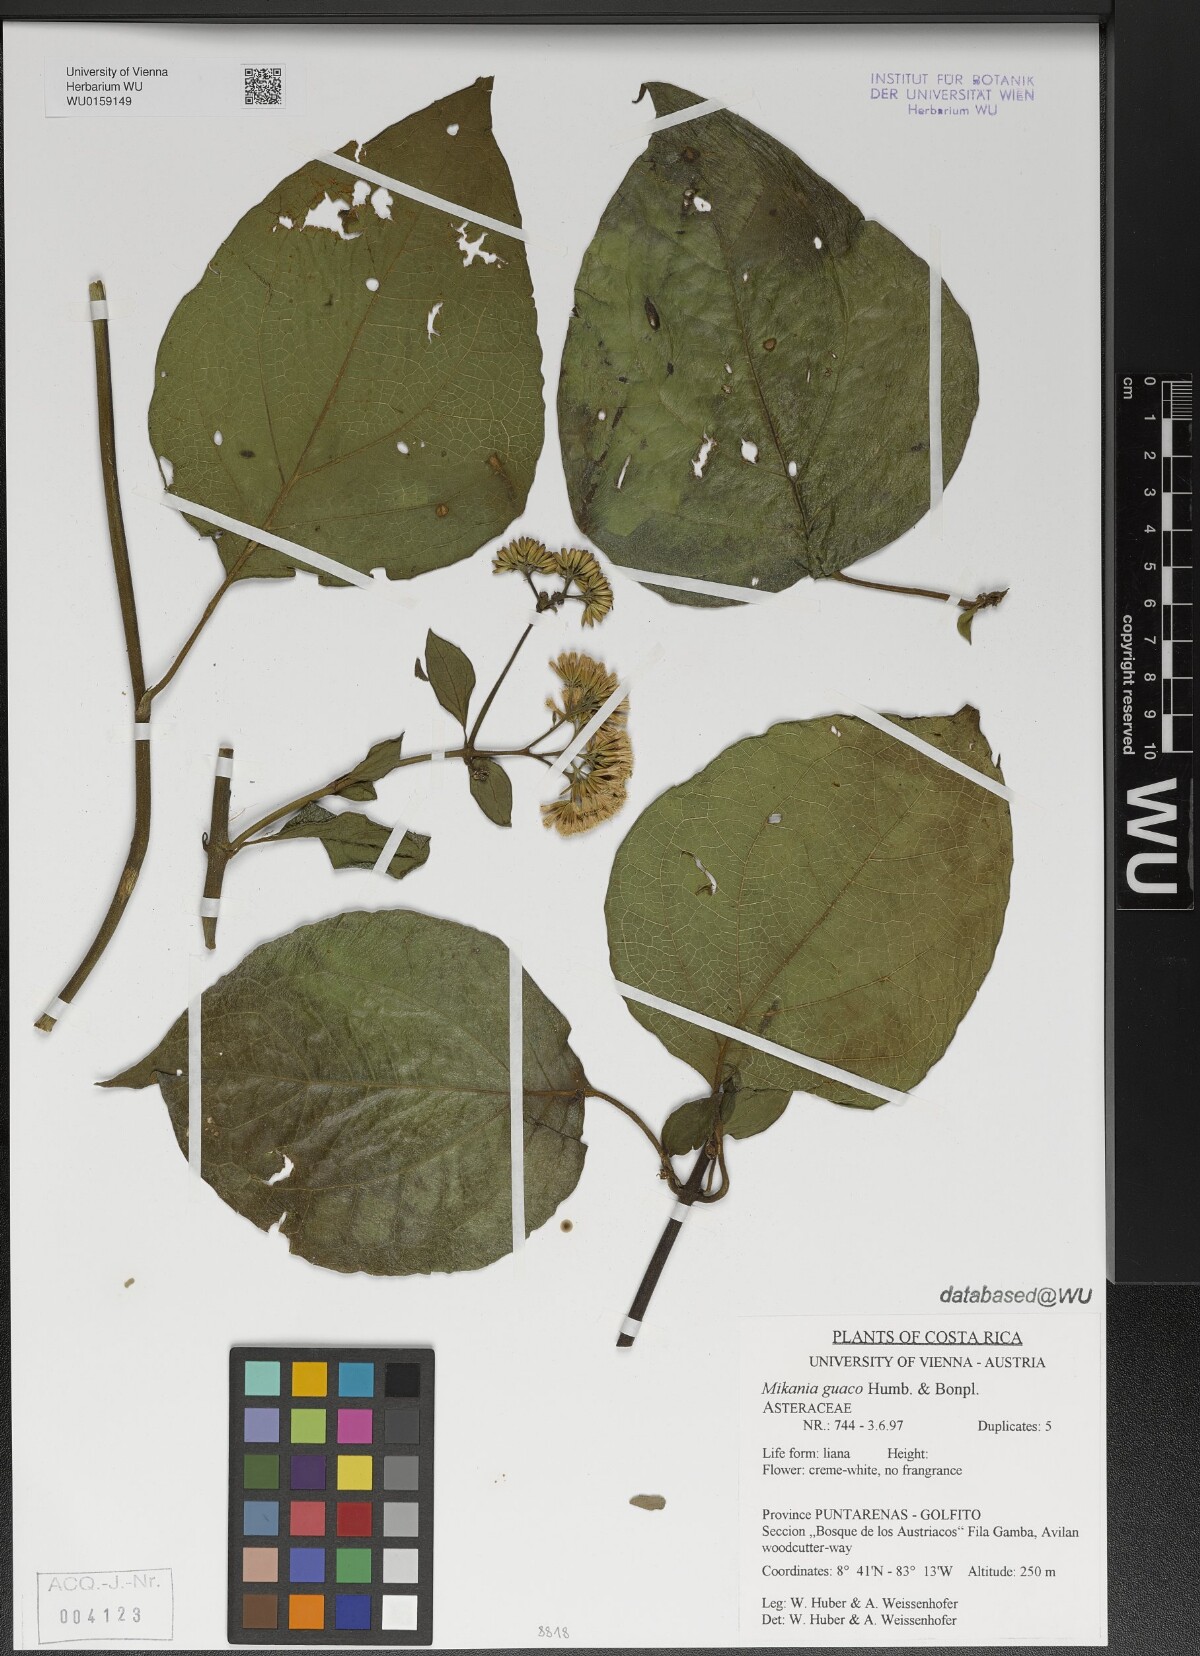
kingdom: Plantae
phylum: Tracheophyta
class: Magnoliopsida
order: Asterales
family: Asteraceae
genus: Mikania
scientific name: Mikania guaco
